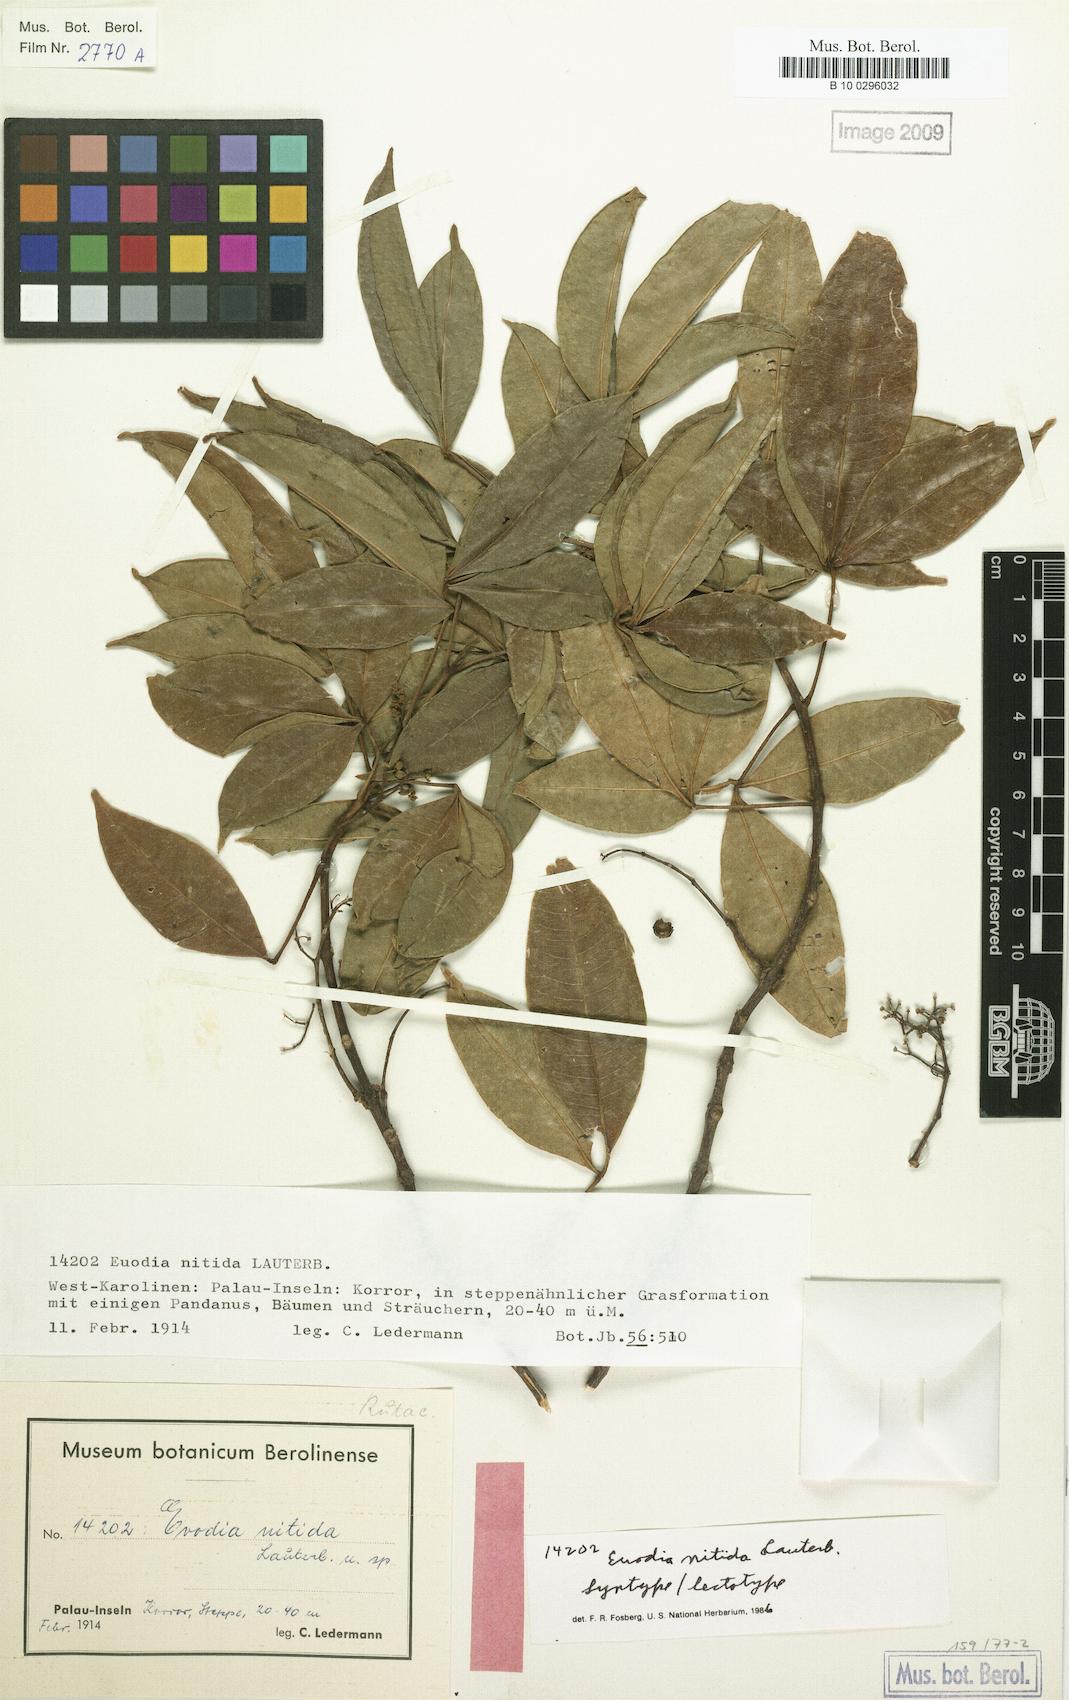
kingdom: Plantae
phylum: Tracheophyta
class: Magnoliopsida
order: Sapindales
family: Rutaceae
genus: Melicope
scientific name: Melicope denhamii
